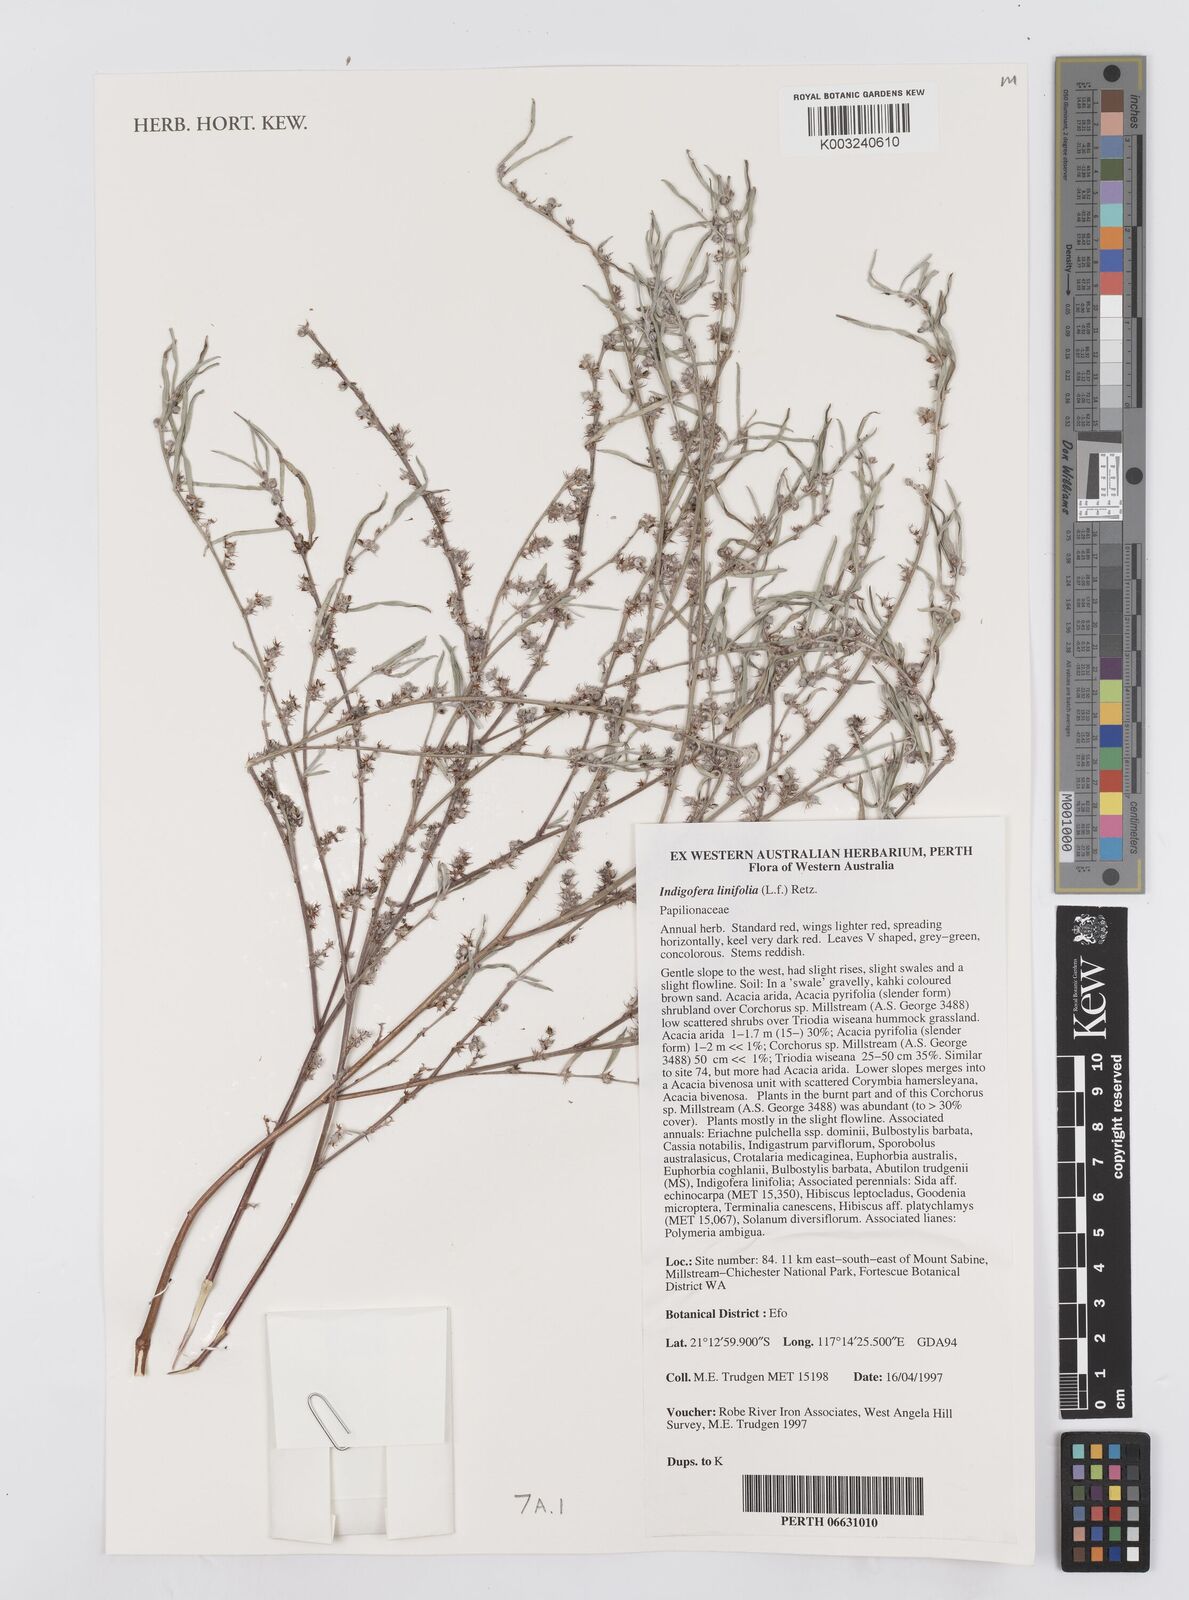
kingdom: Plantae
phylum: Tracheophyta
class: Magnoliopsida
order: Fabales
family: Fabaceae
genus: Indigofera
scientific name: Indigofera linifolia
